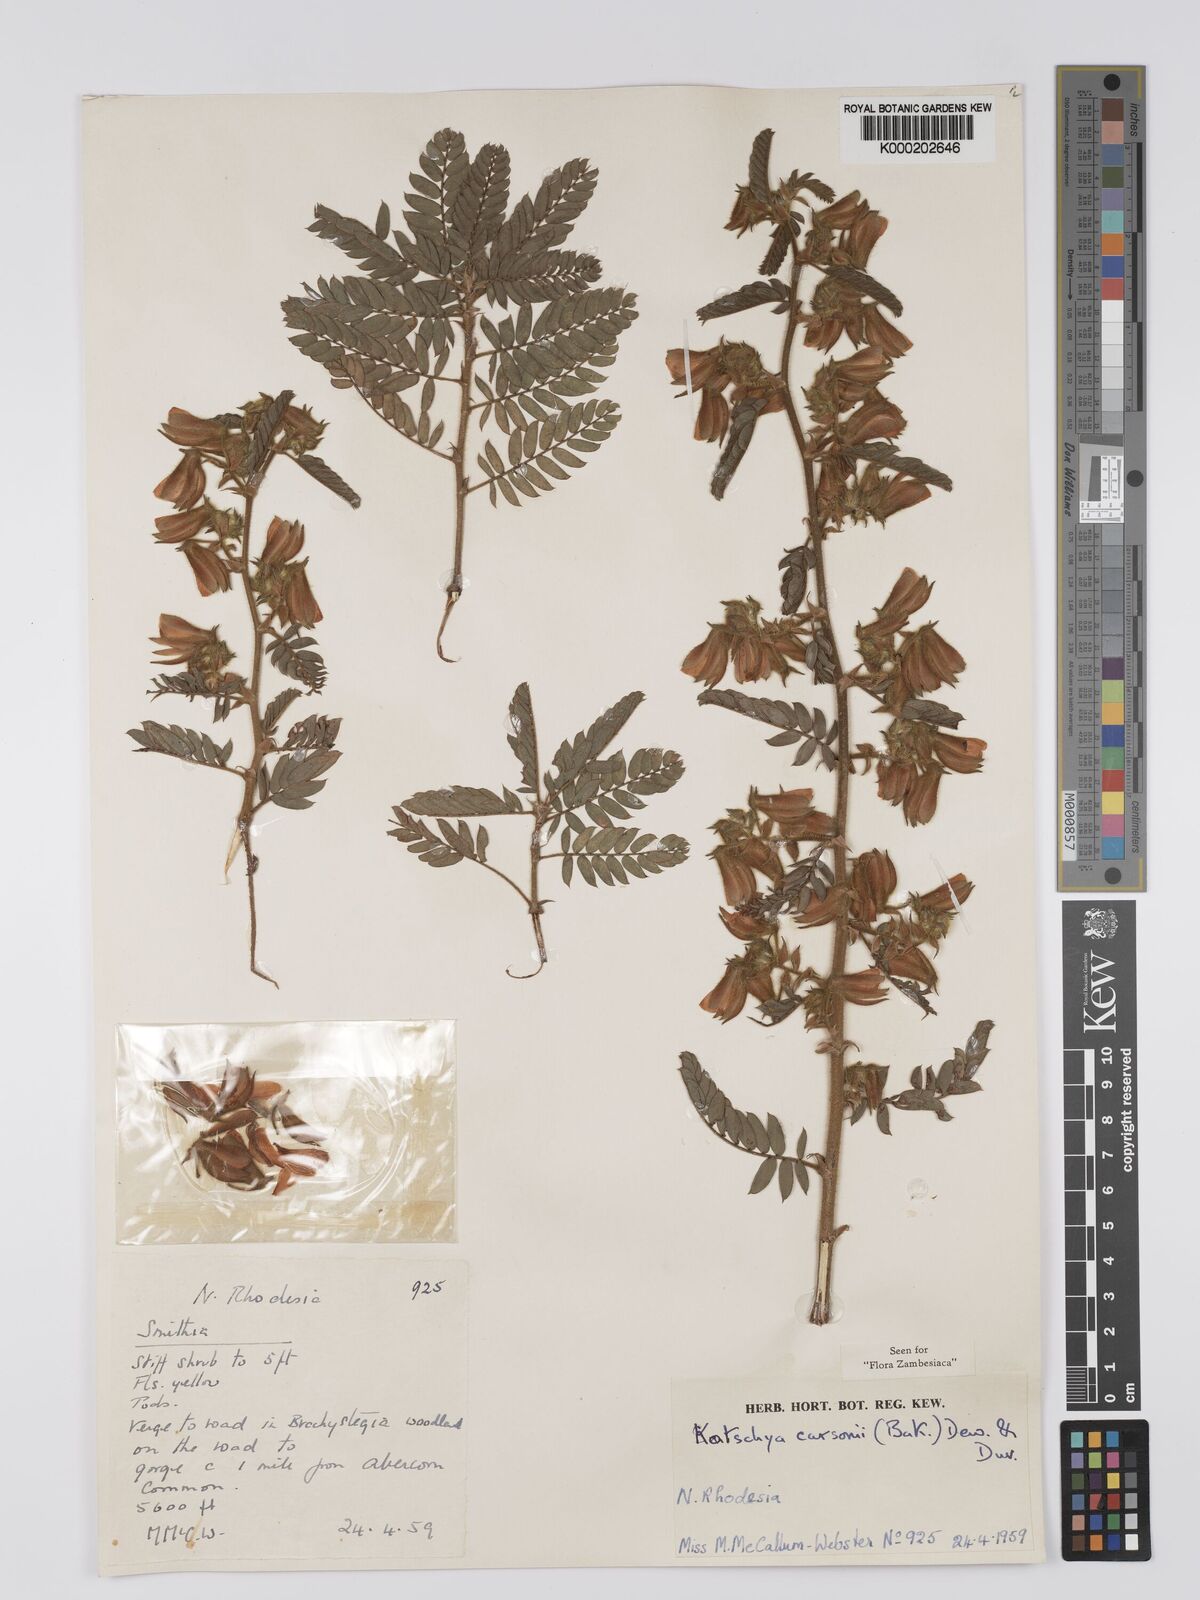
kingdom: Plantae
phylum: Tracheophyta
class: Magnoliopsida
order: Fabales
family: Fabaceae
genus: Kotschya
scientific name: Kotschya carsonii
